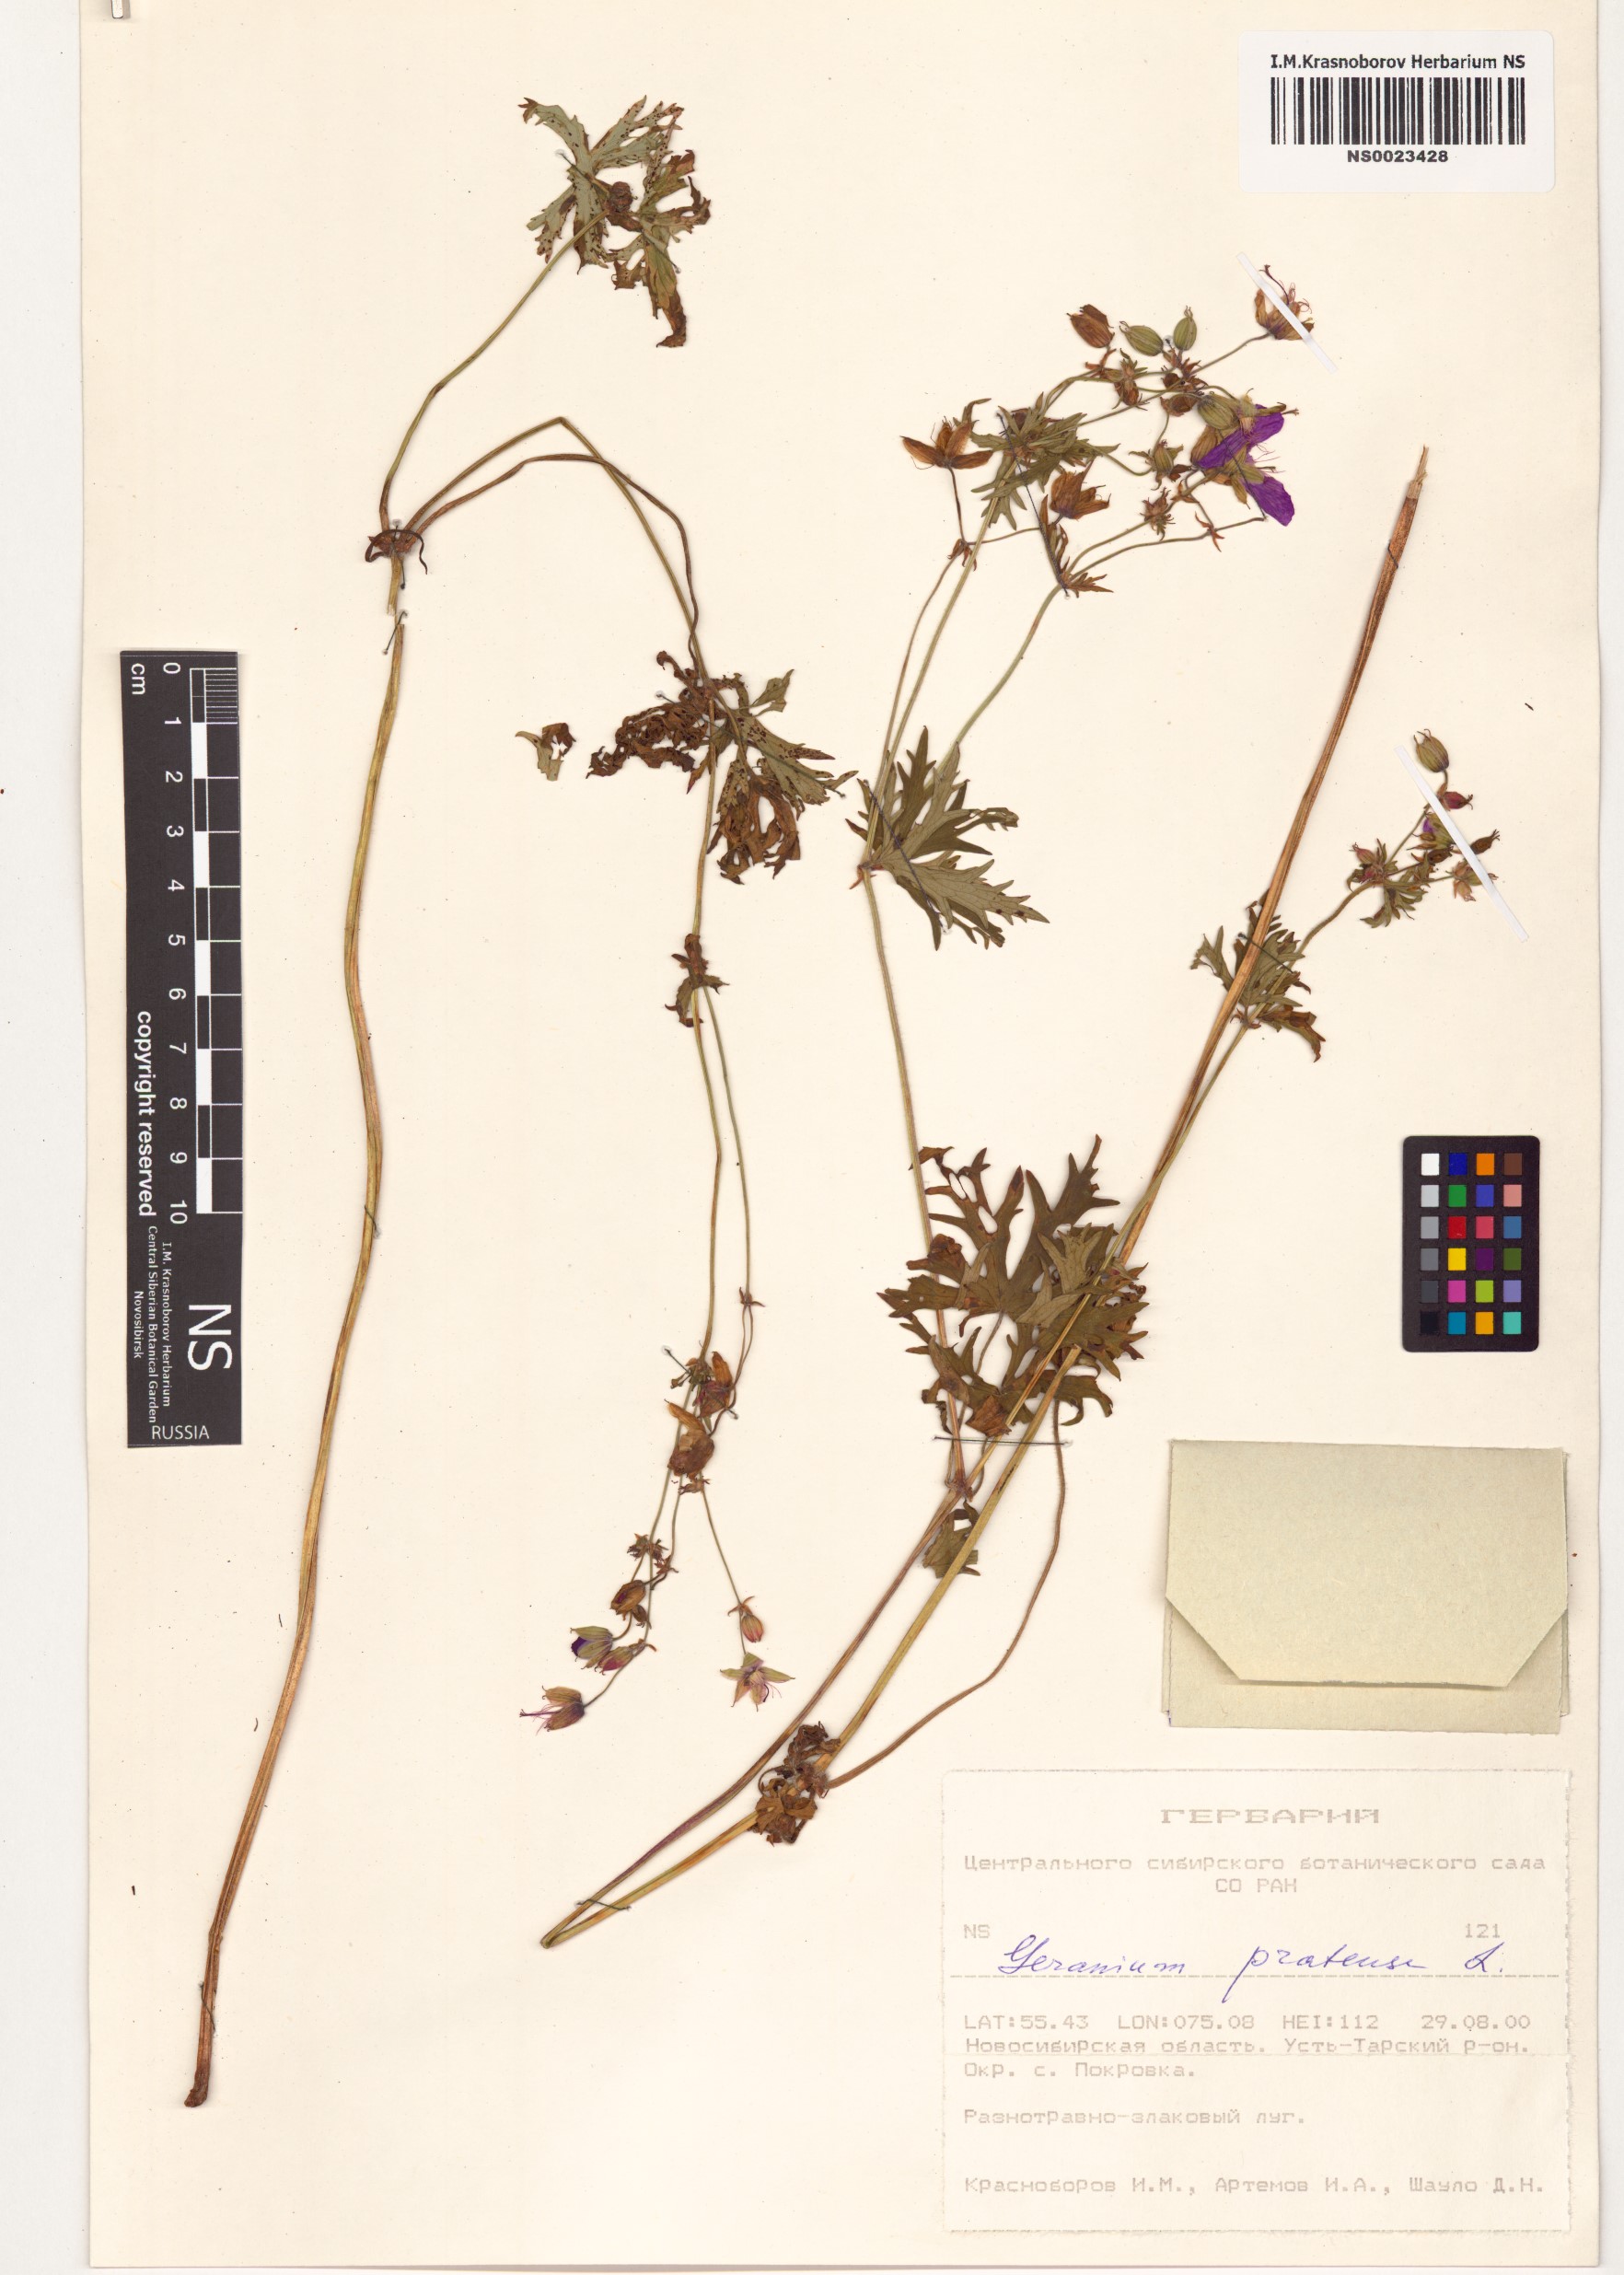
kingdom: Plantae
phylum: Tracheophyta
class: Magnoliopsida
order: Geraniales
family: Geraniaceae
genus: Geranium
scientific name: Geranium pratense
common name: Meadow crane's-bill
